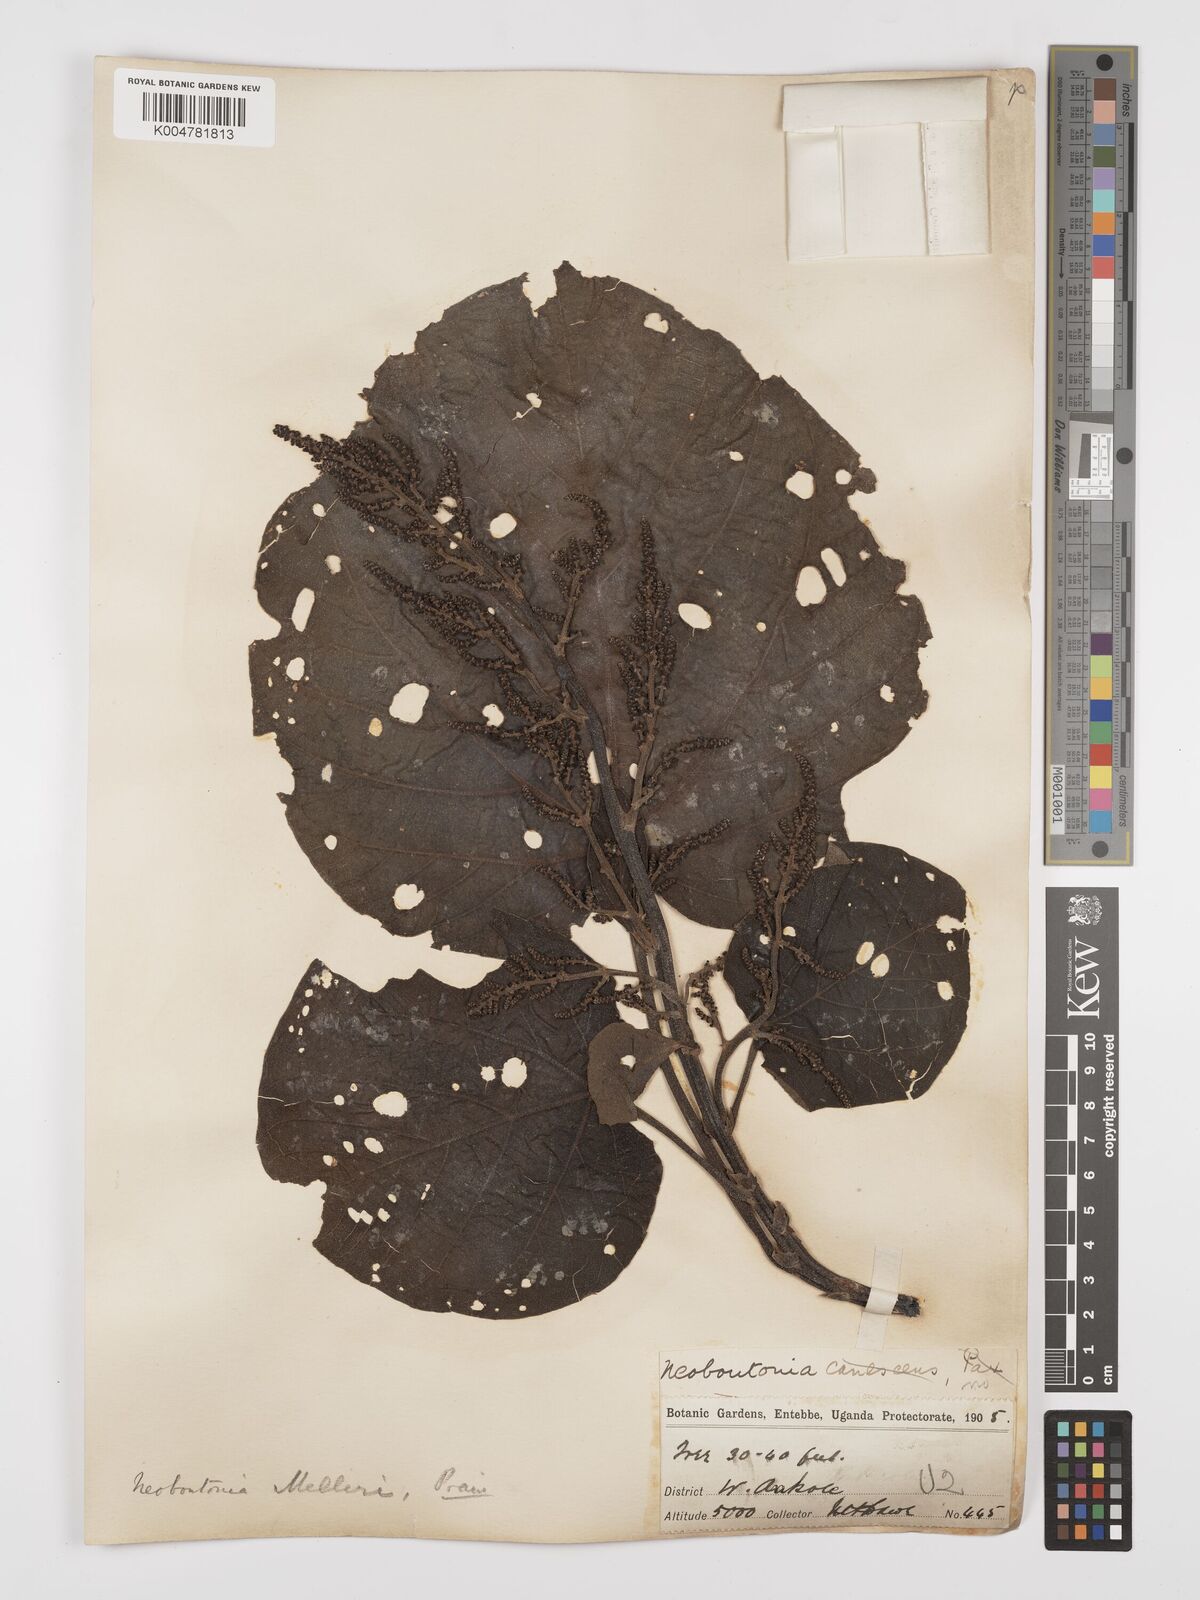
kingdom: Plantae
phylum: Tracheophyta
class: Magnoliopsida
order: Malpighiales
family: Euphorbiaceae
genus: Neoboutonia
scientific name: Neoboutonia melleri
